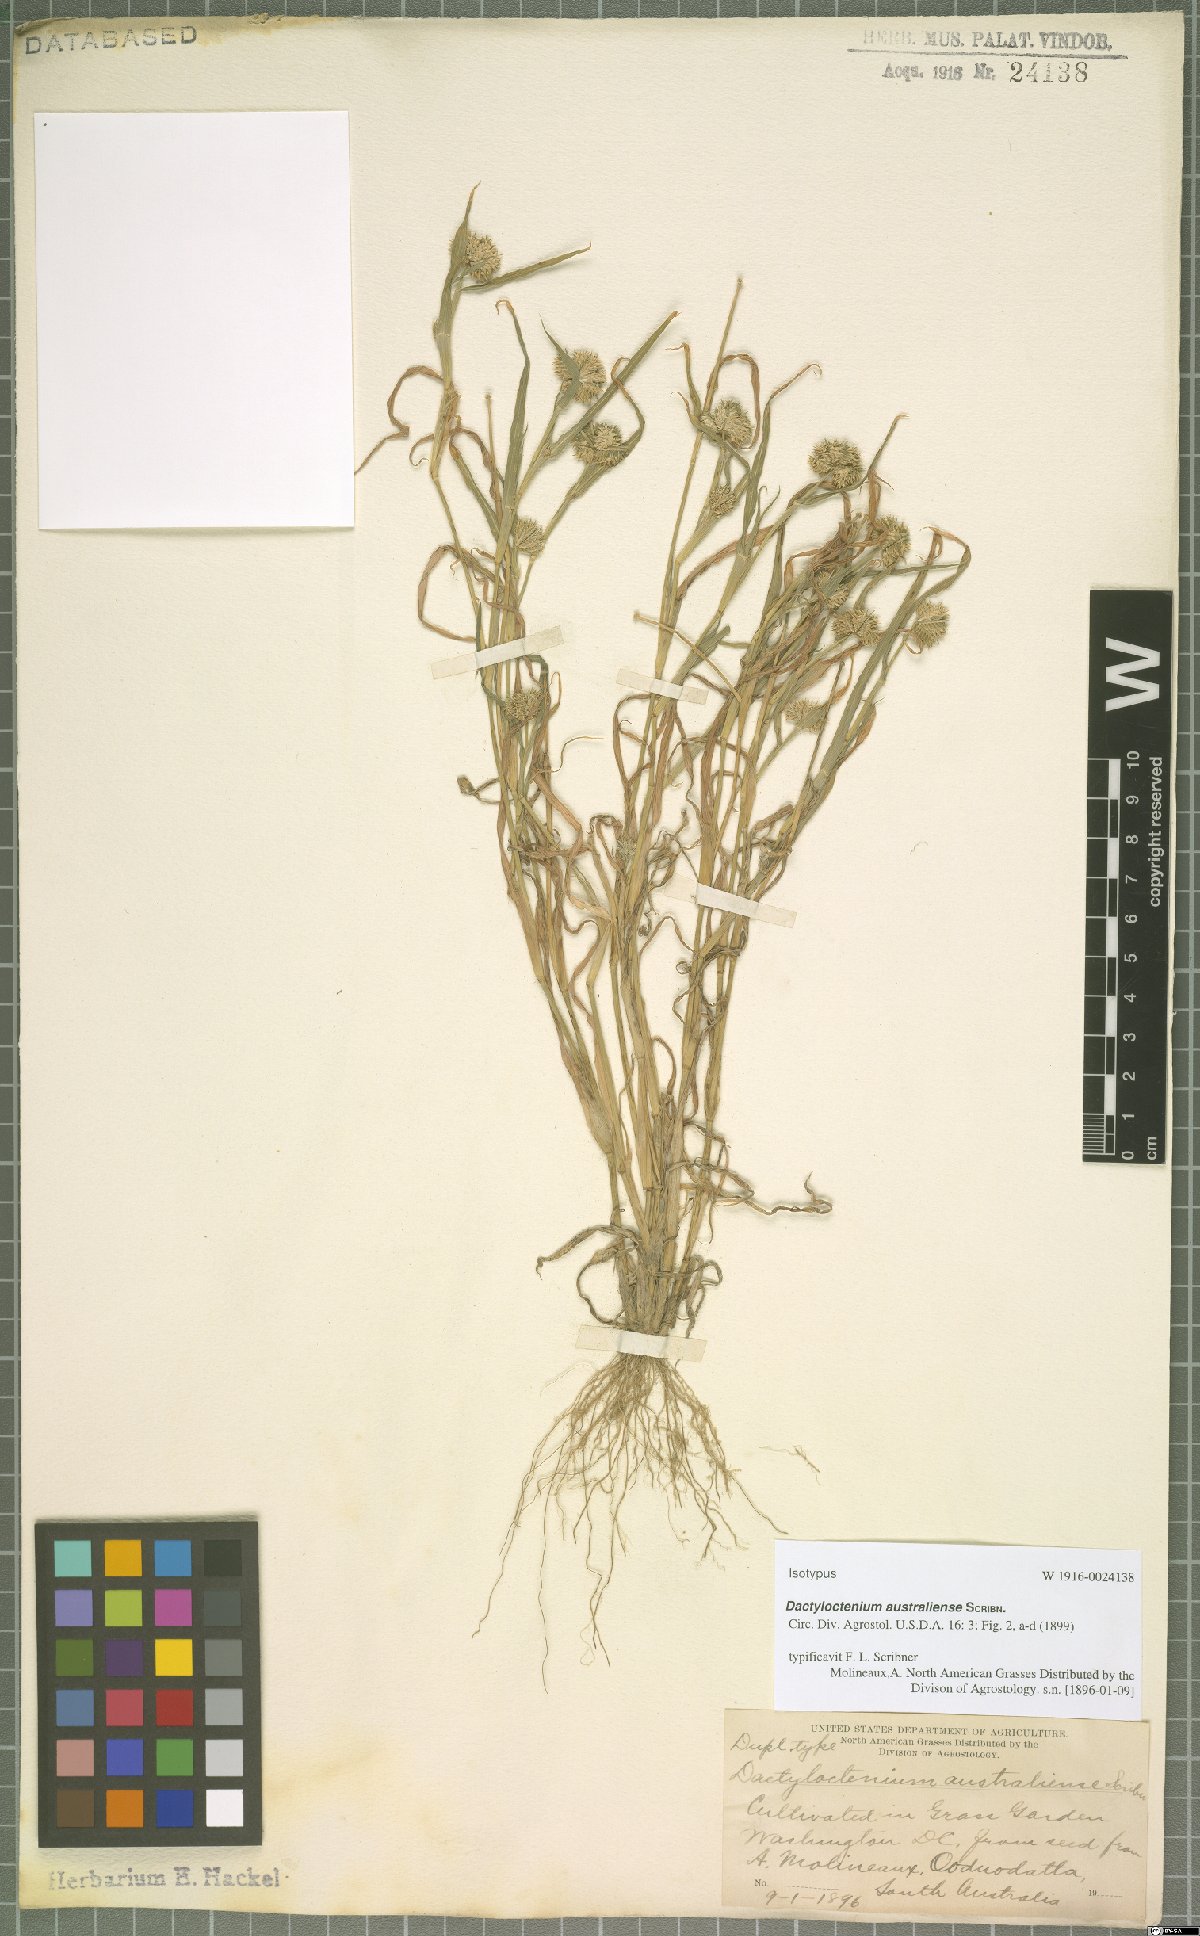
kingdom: Plantae
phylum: Tracheophyta
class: Liliopsida
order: Poales
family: Poaceae
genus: Dactyloctenium
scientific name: Dactyloctenium australiense
